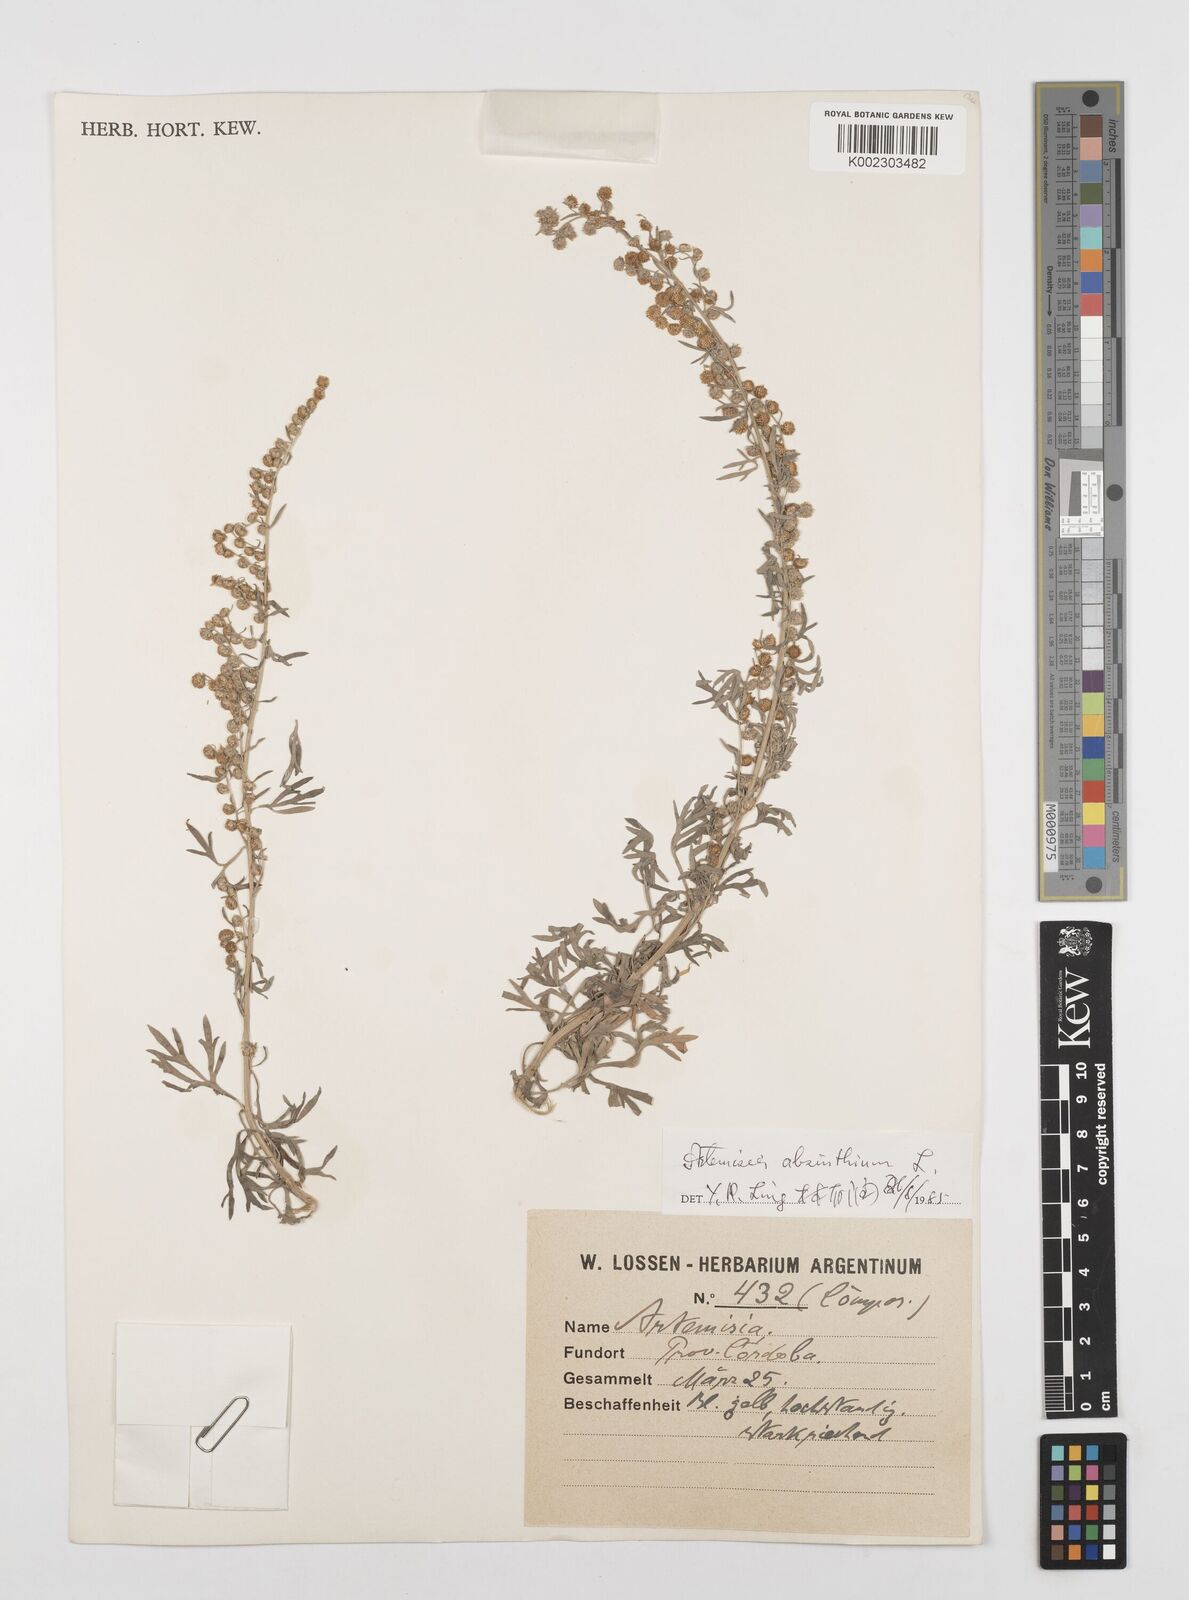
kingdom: Plantae
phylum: Tracheophyta
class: Magnoliopsida
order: Asterales
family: Asteraceae
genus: Artemisia
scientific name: Artemisia absinthium
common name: Wormwood
